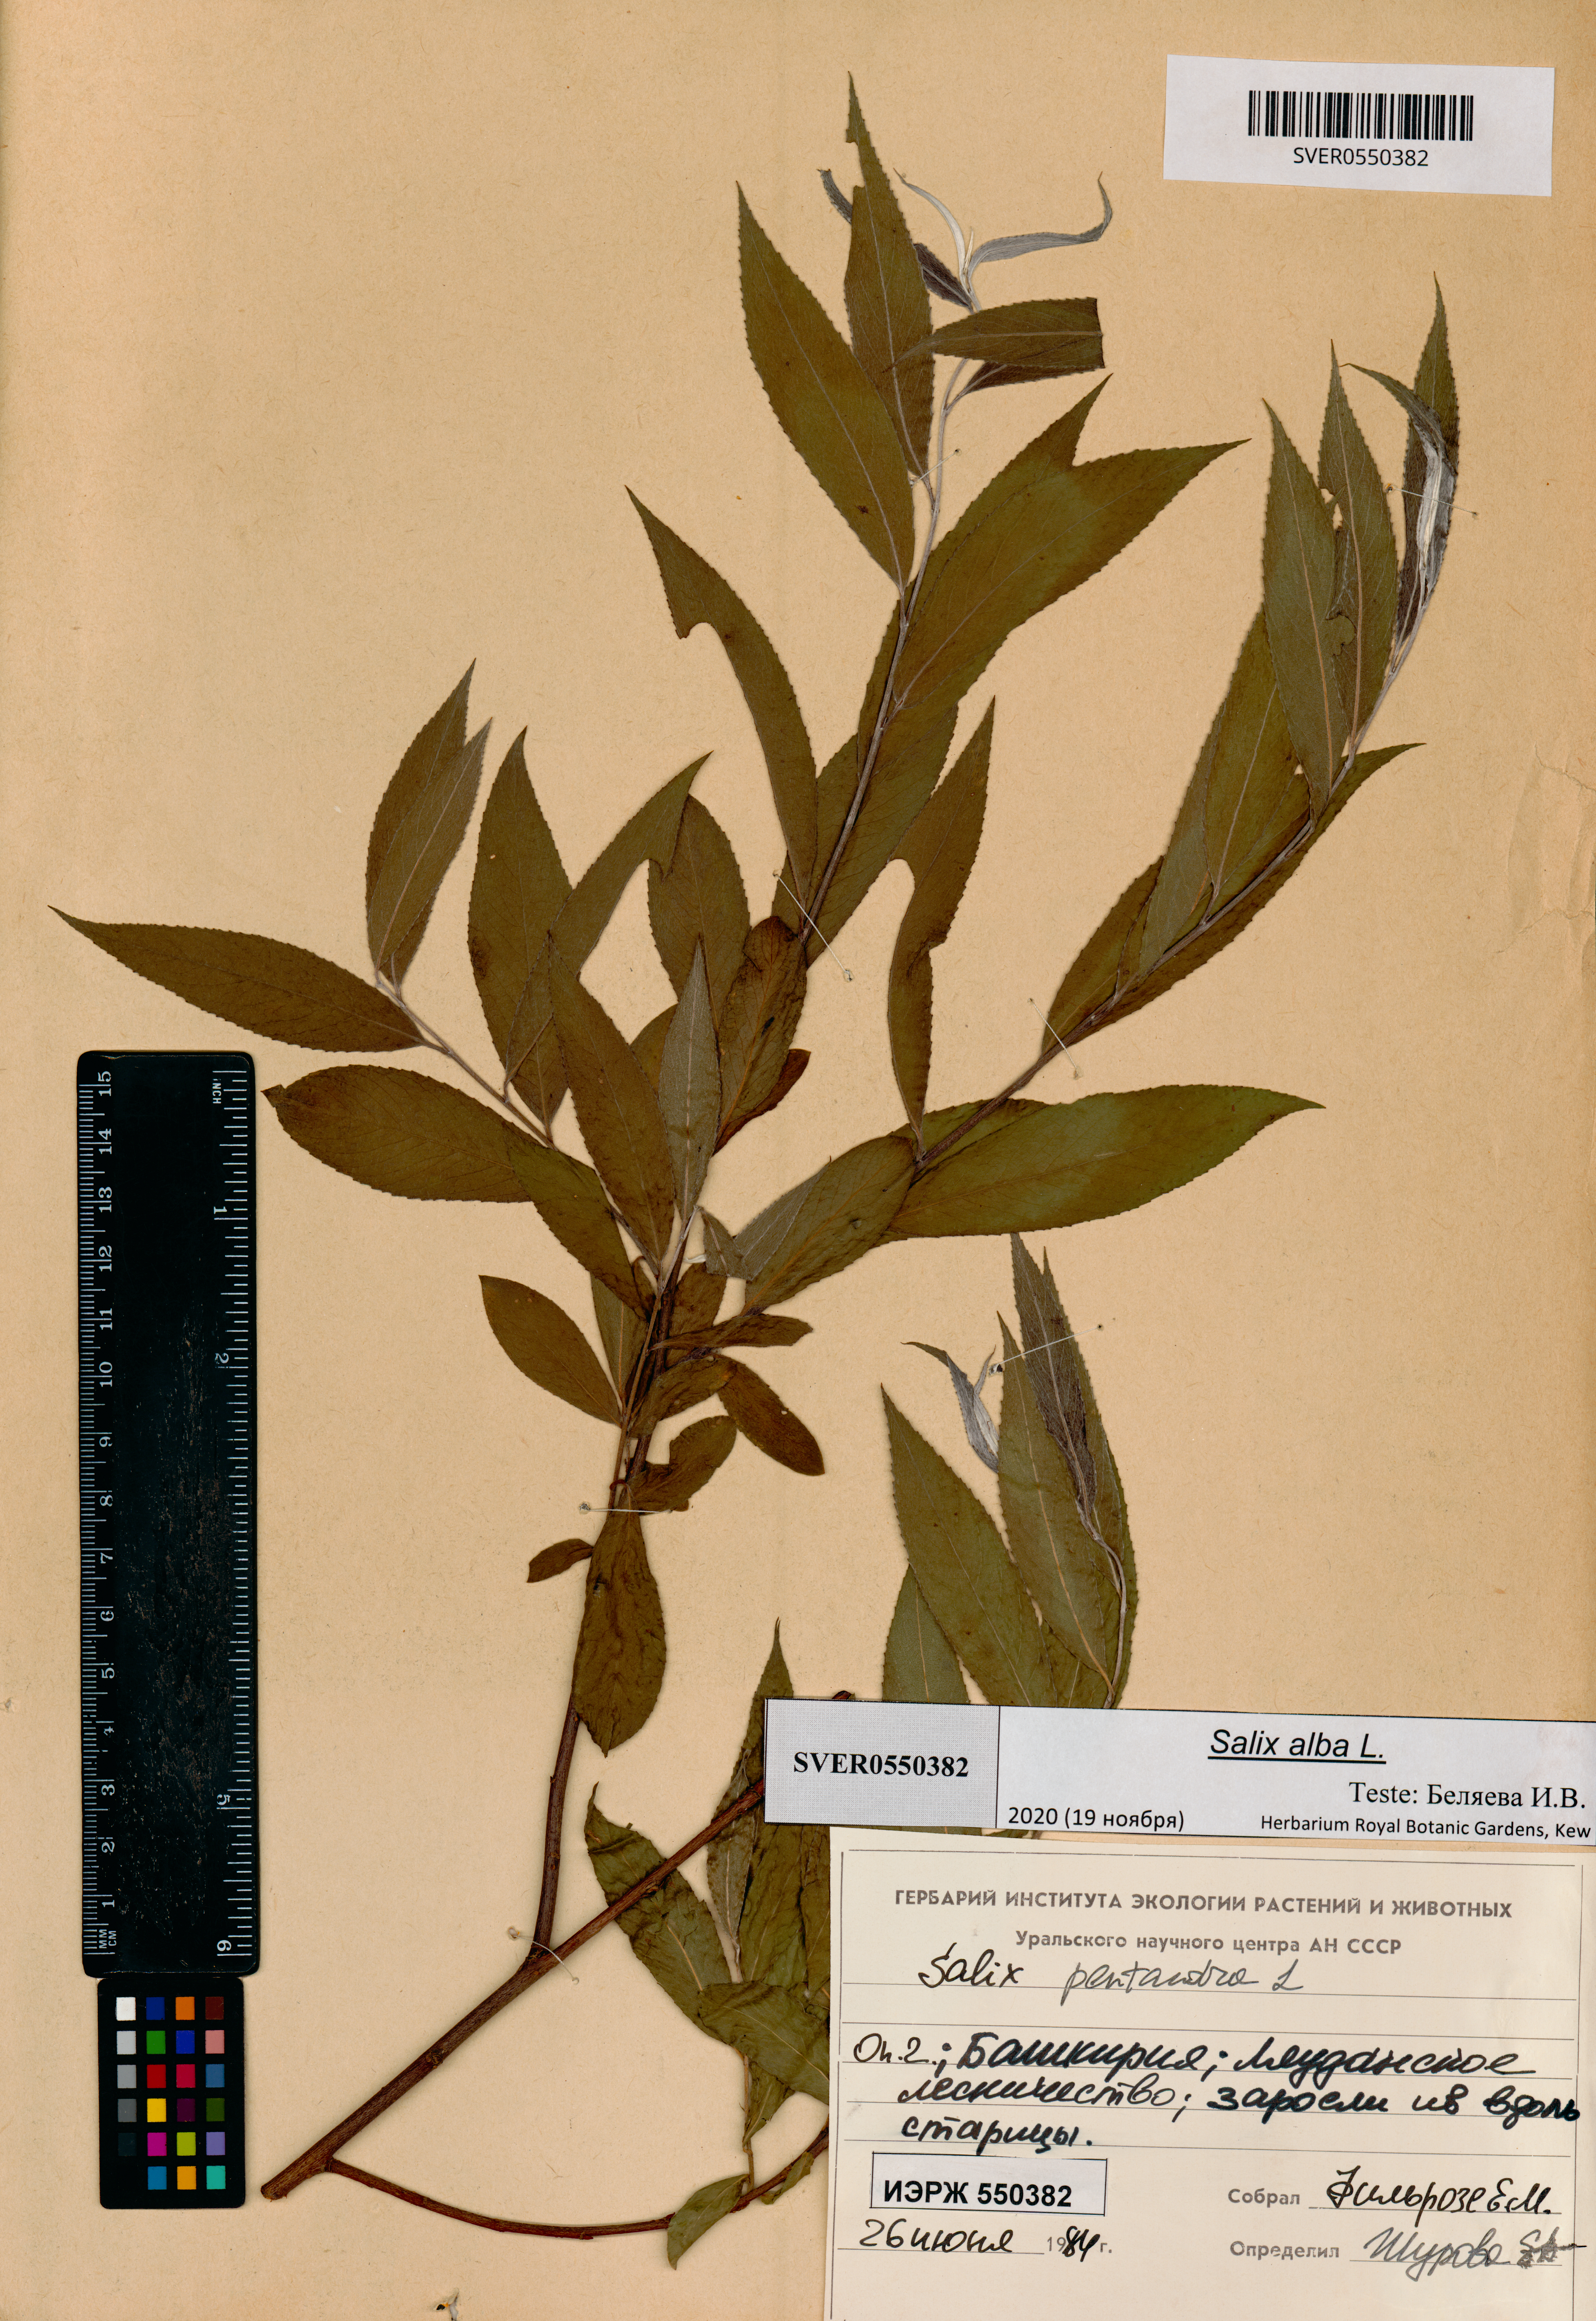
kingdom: Plantae
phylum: Tracheophyta
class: Magnoliopsida
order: Malpighiales
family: Salicaceae
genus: Salix
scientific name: Salix alba
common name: White willow
